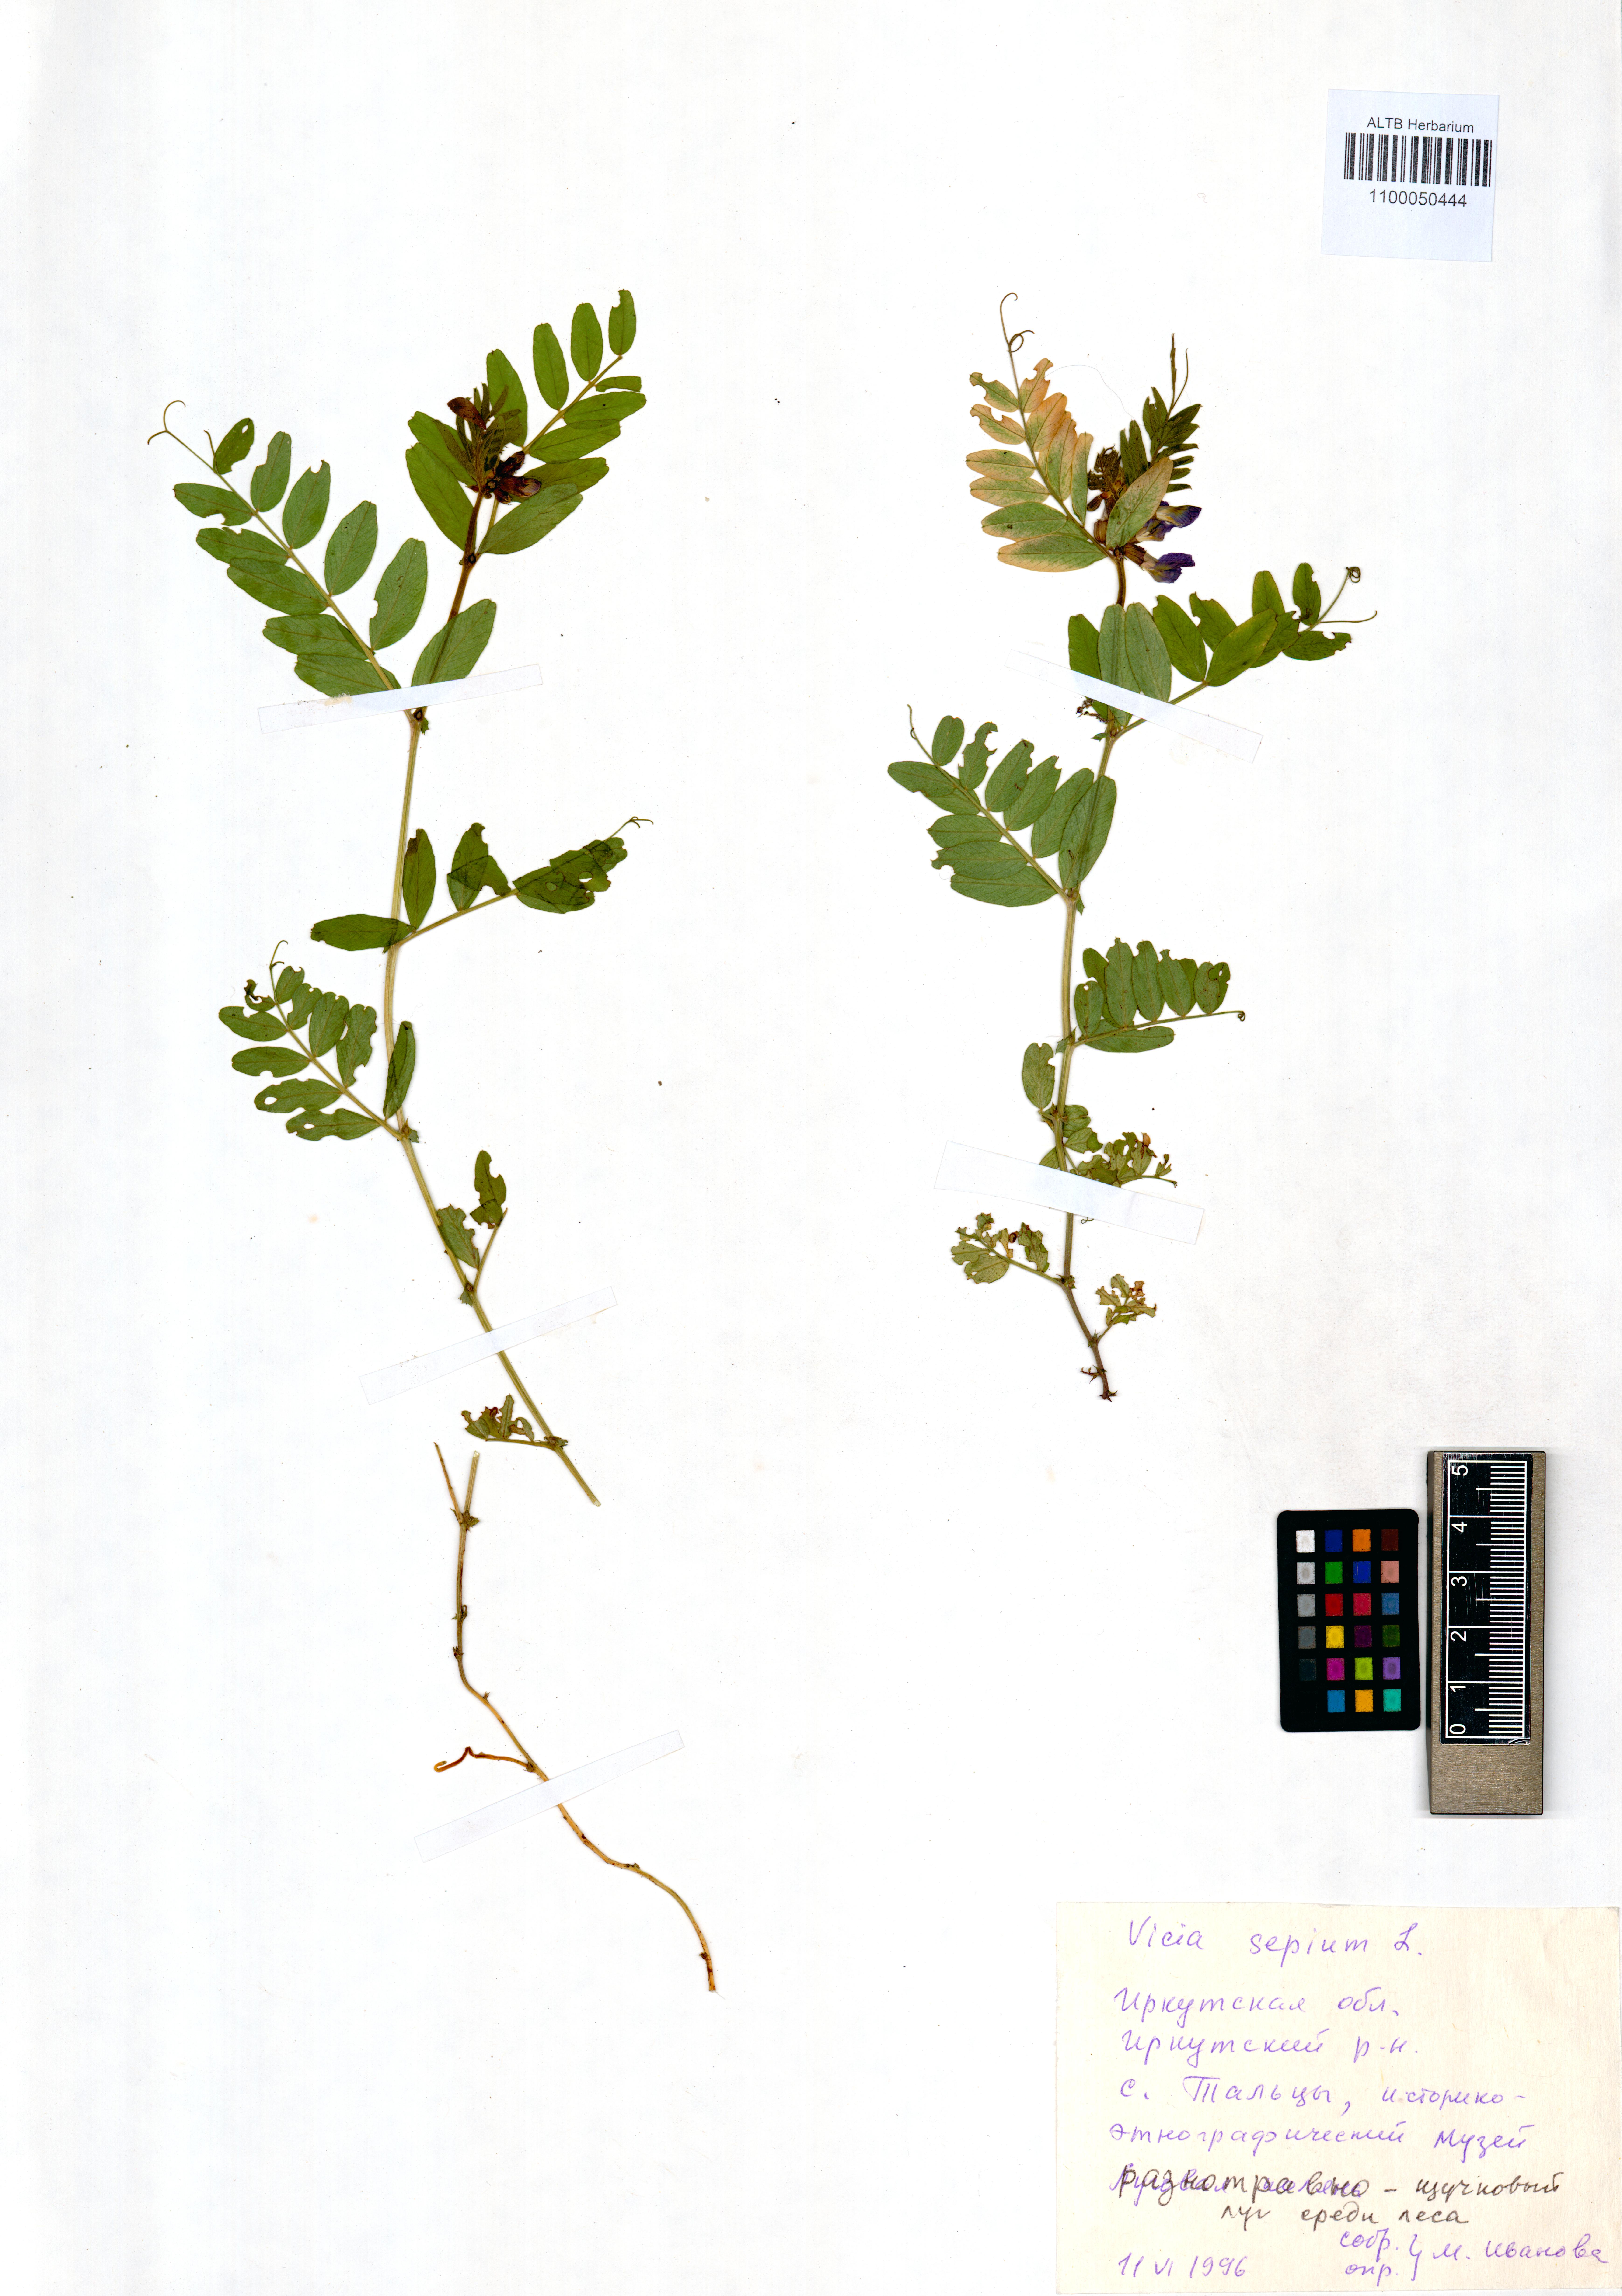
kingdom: Plantae
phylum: Tracheophyta
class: Magnoliopsida
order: Fabales
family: Fabaceae
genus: Vicia
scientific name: Vicia sepium
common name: Bush vetch
